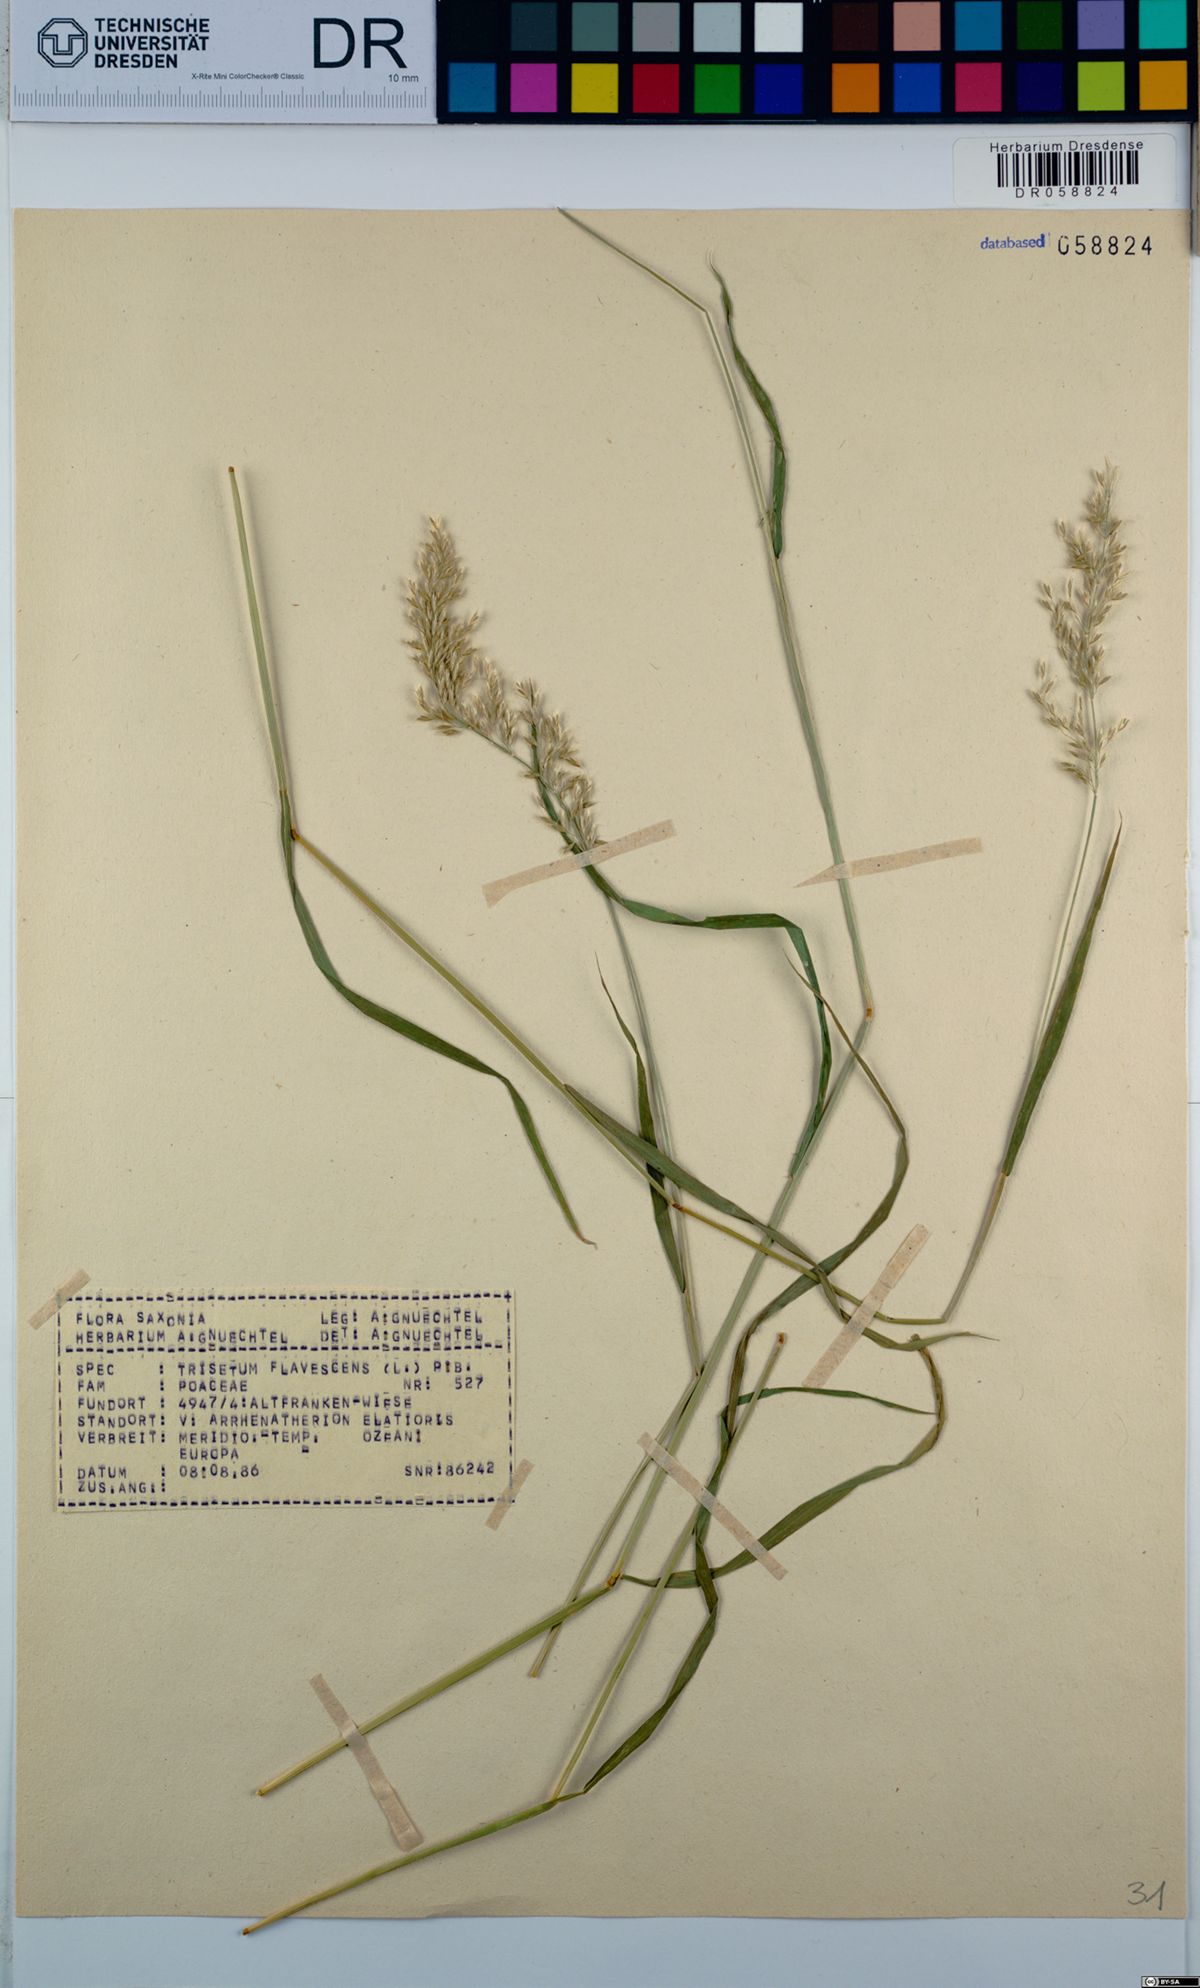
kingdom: Plantae
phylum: Tracheophyta
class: Liliopsida
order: Poales
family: Poaceae
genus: Trisetum
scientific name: Trisetum flavescens
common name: Yellow oat-grass
